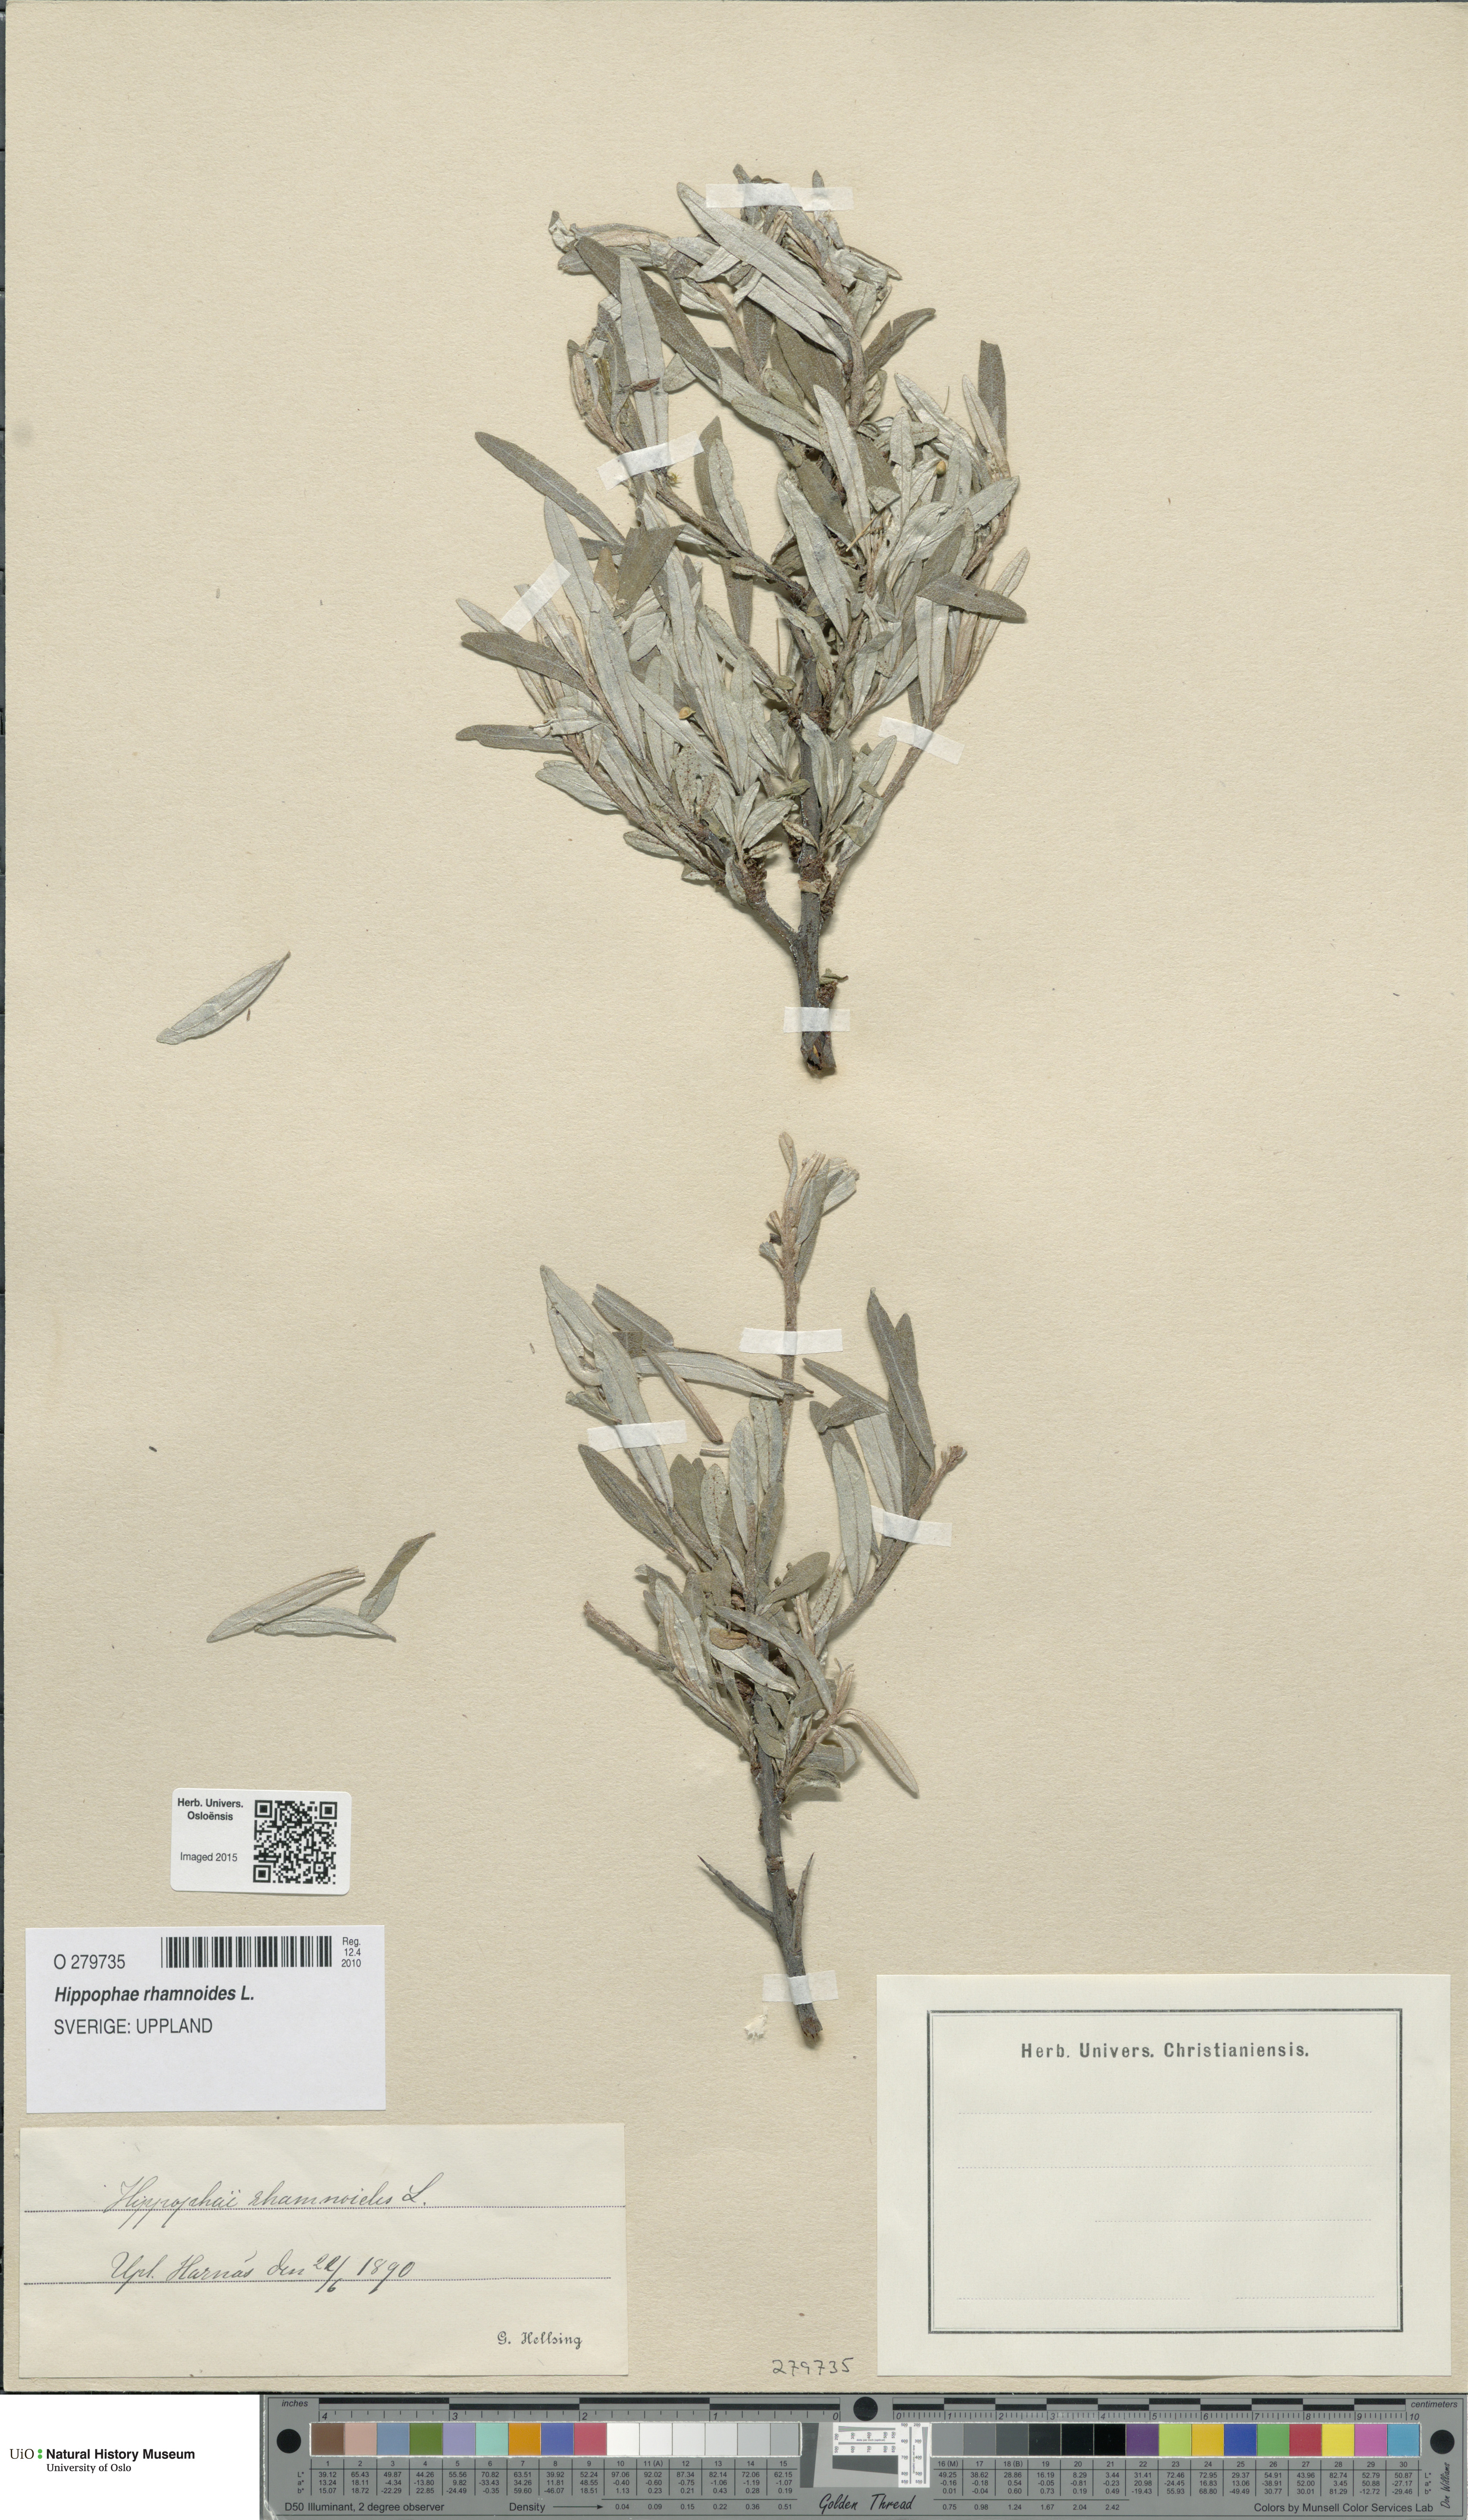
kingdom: Plantae
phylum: Tracheophyta
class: Magnoliopsida
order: Rosales
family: Elaeagnaceae
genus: Hippophae
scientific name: Hippophae rhamnoides
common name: Sea-buckthorn
